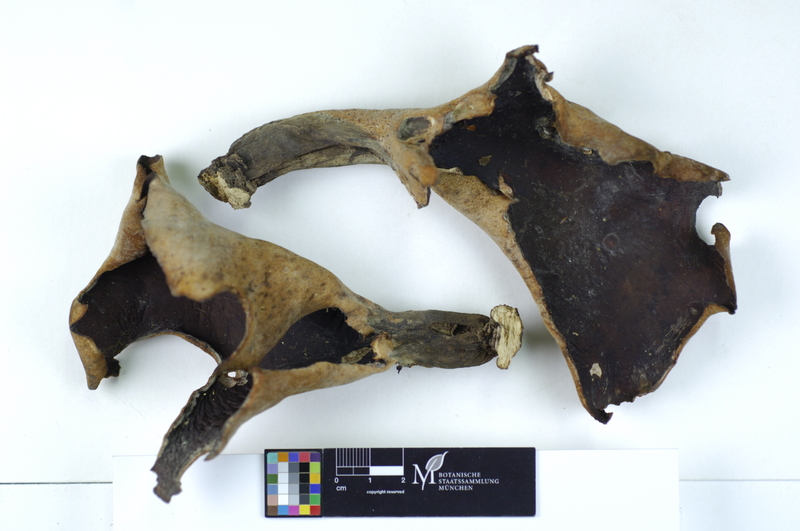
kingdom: Fungi
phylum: Basidiomycota
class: Agaricomycetes
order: Polyporales
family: Polyporaceae
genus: Picipes
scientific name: Picipes badius
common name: Bay polypore
